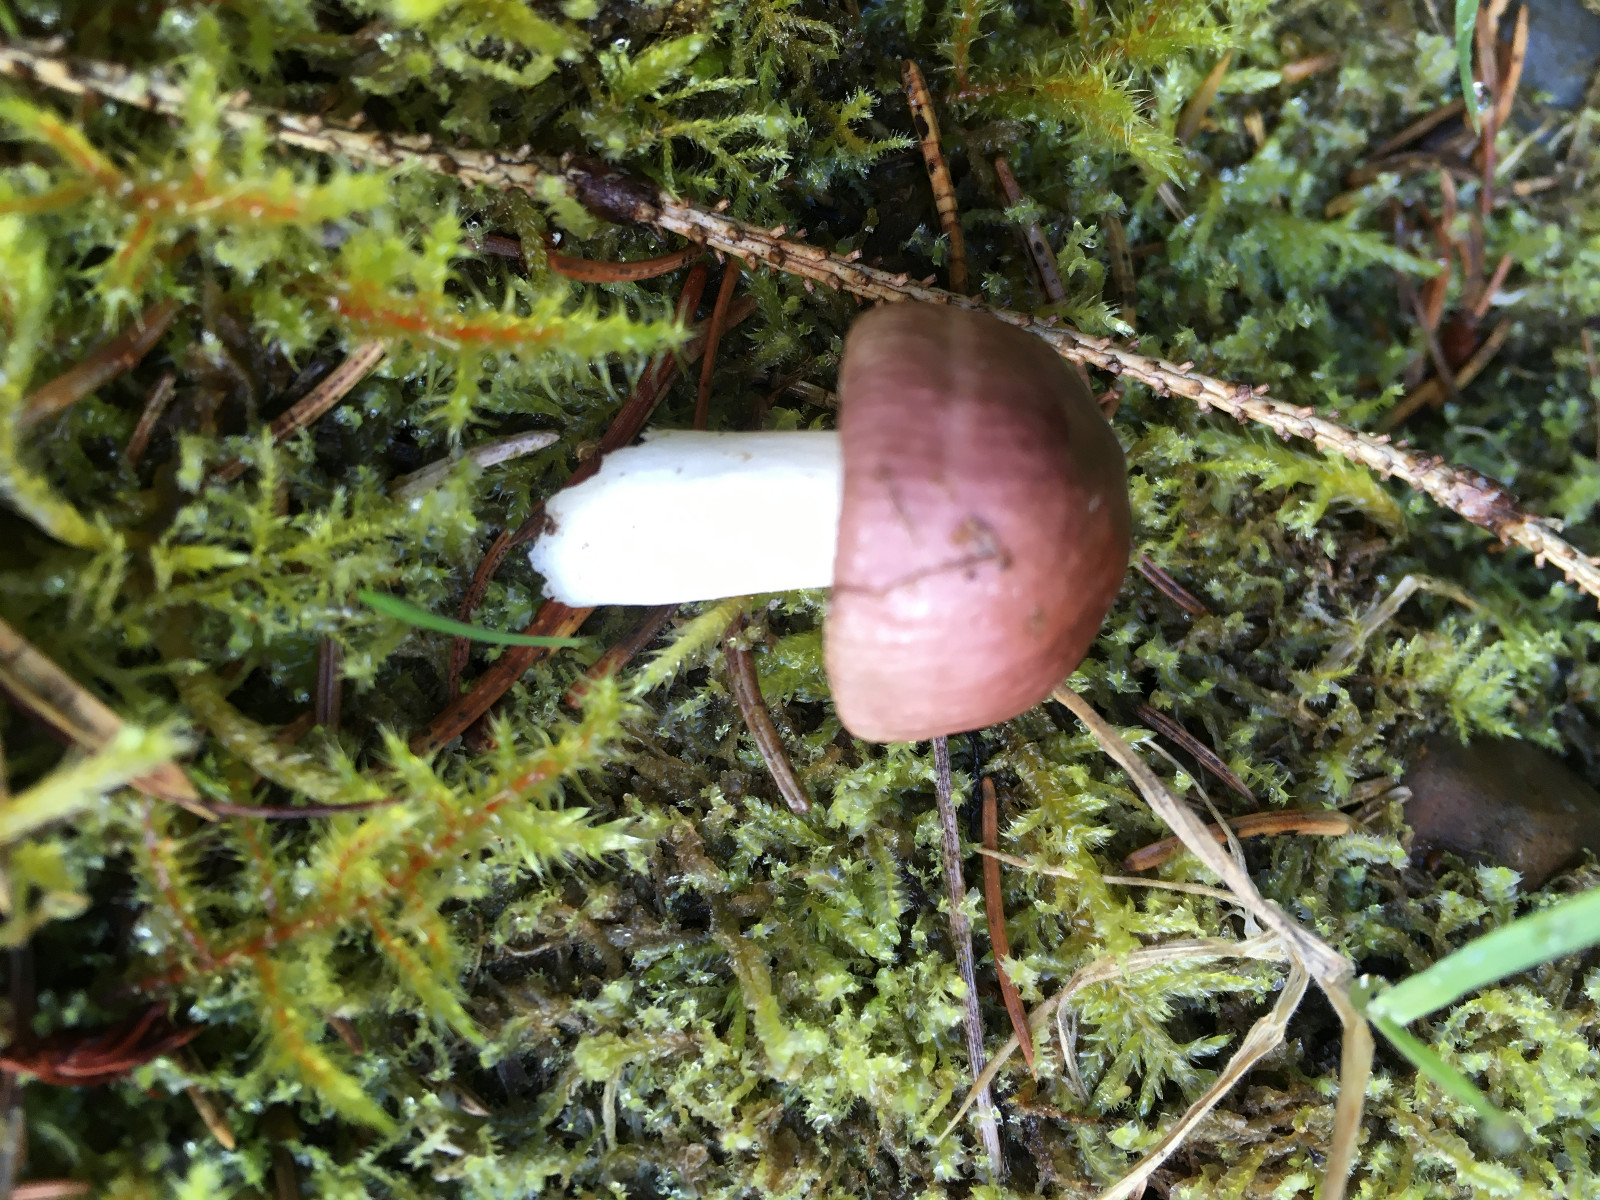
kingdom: Fungi
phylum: Basidiomycota
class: Agaricomycetes
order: Russulales
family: Russulaceae
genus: Russula
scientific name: Russula nauseosa
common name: spinkel skørhat
